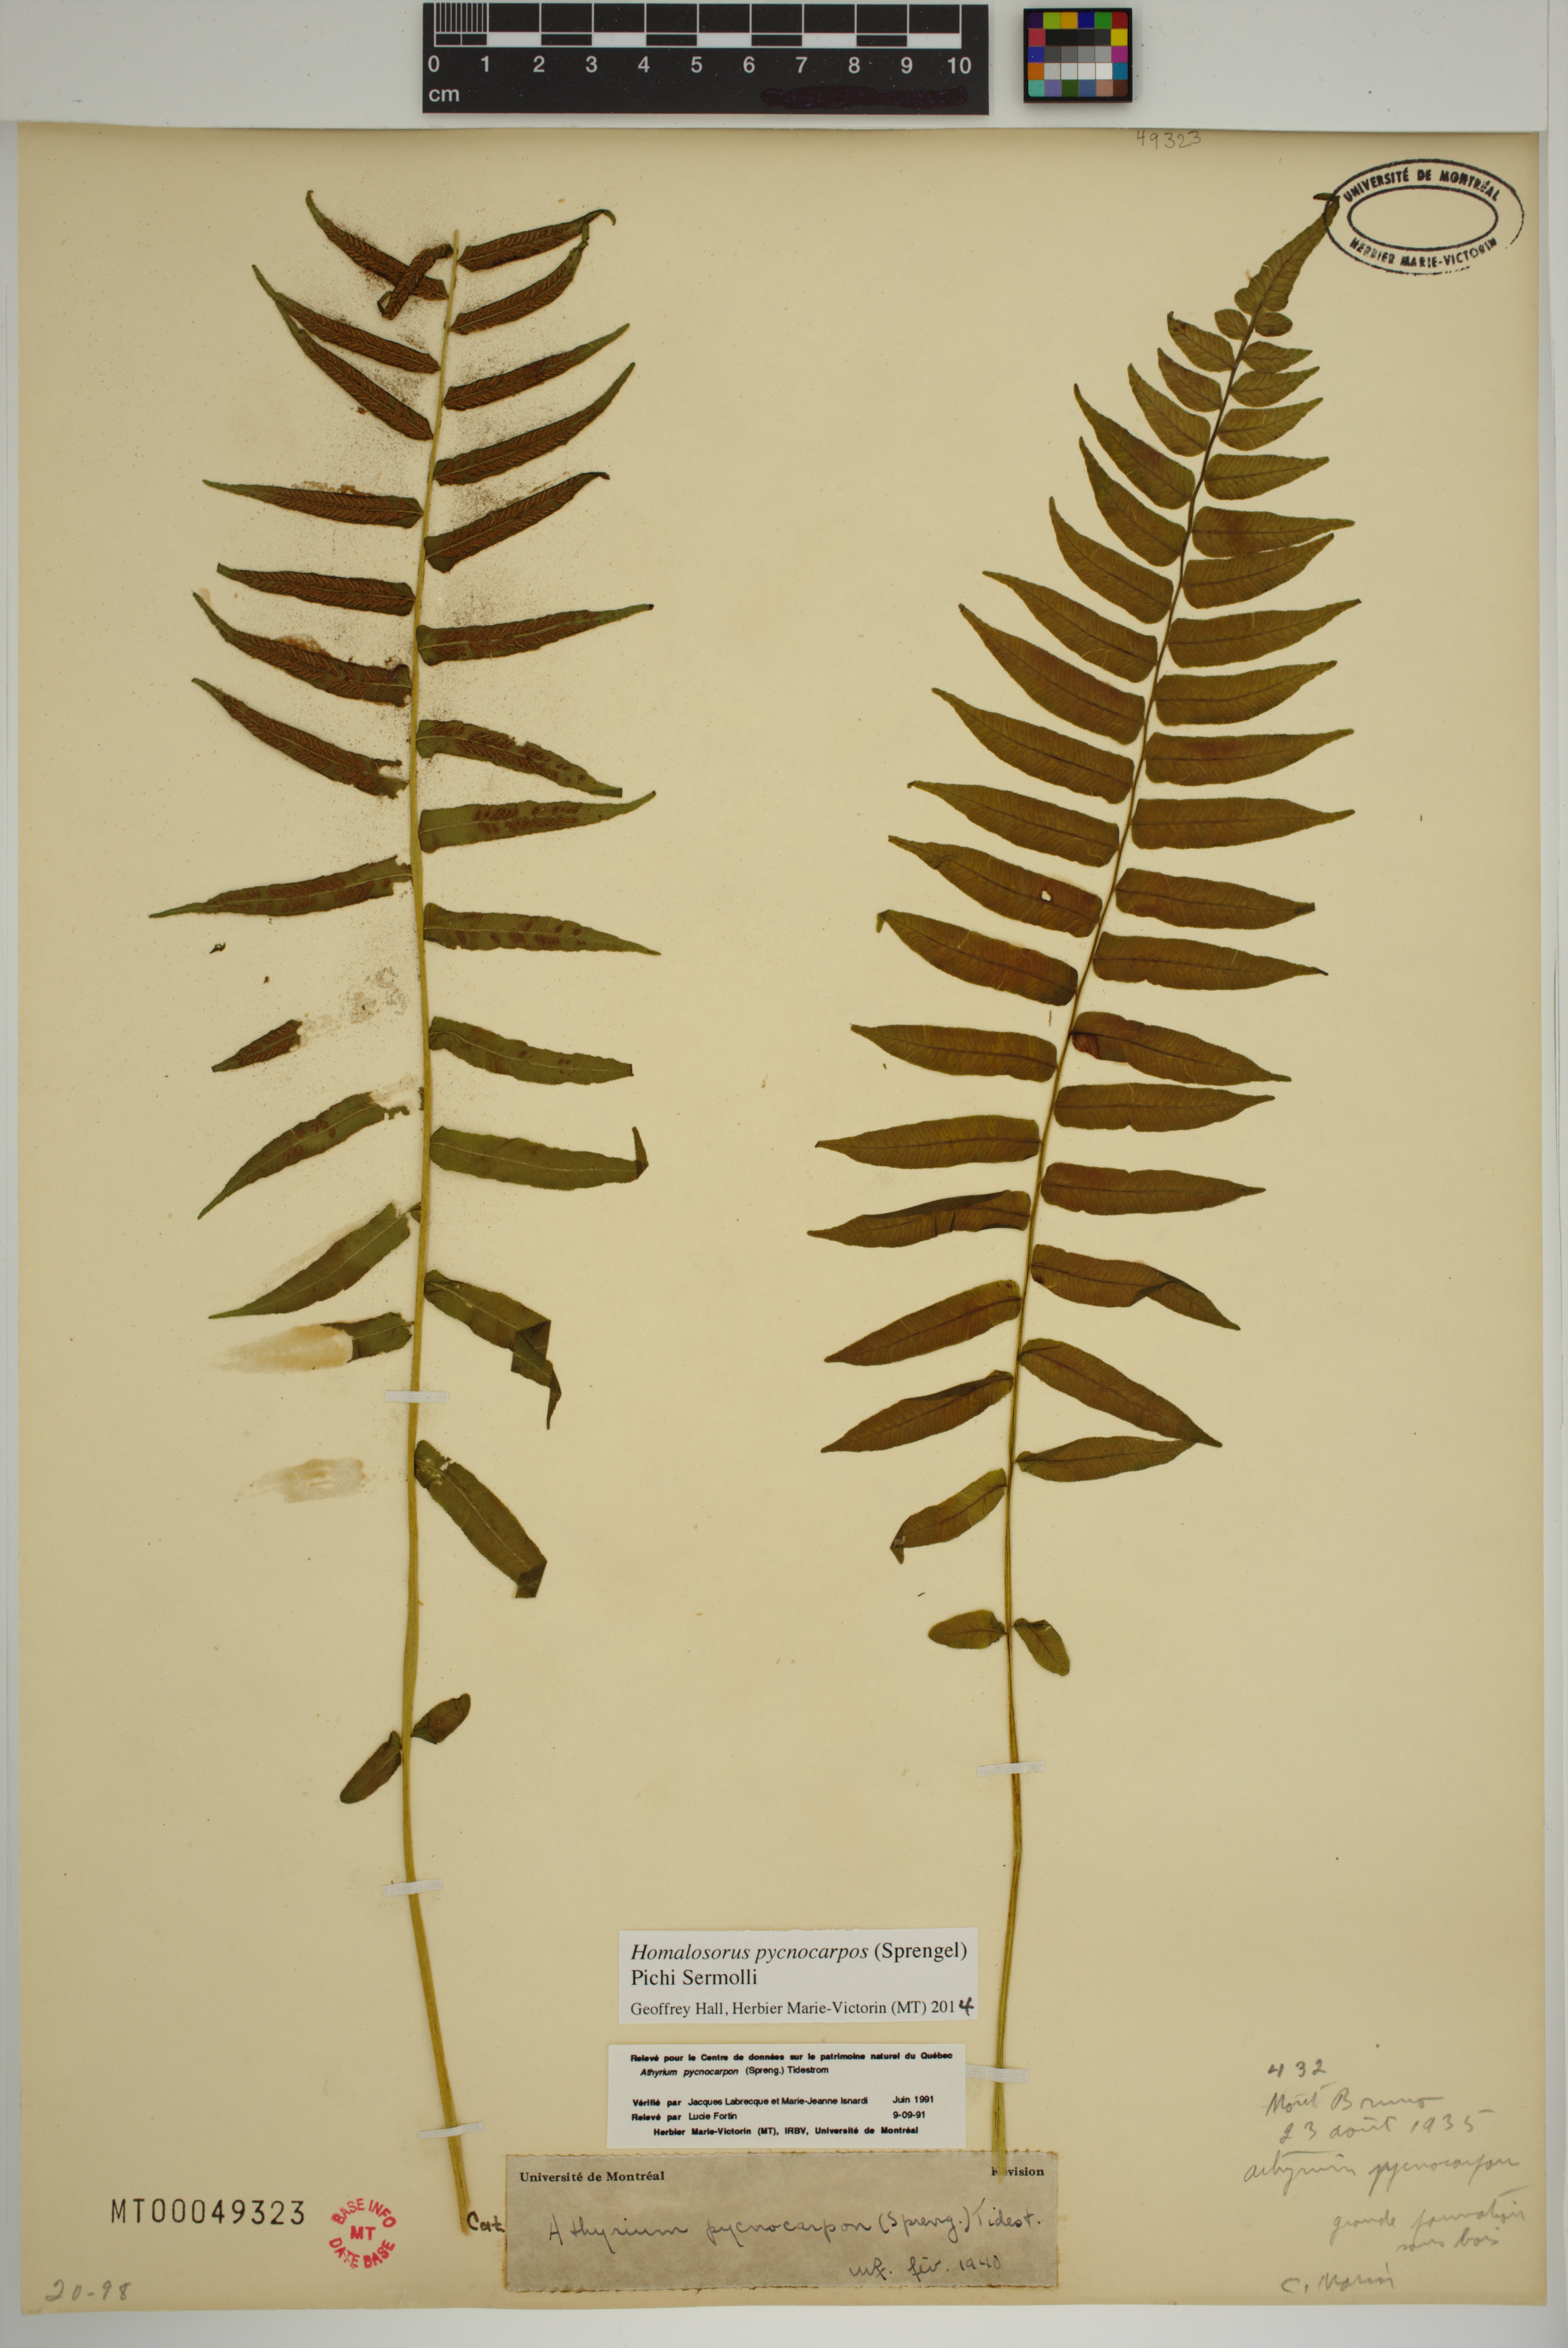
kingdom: Plantae
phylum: Tracheophyta
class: Polypodiopsida
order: Polypodiales
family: Diplaziopsidaceae
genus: Homalosorus
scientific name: Homalosorus pycnocarpos
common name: Glade fern
